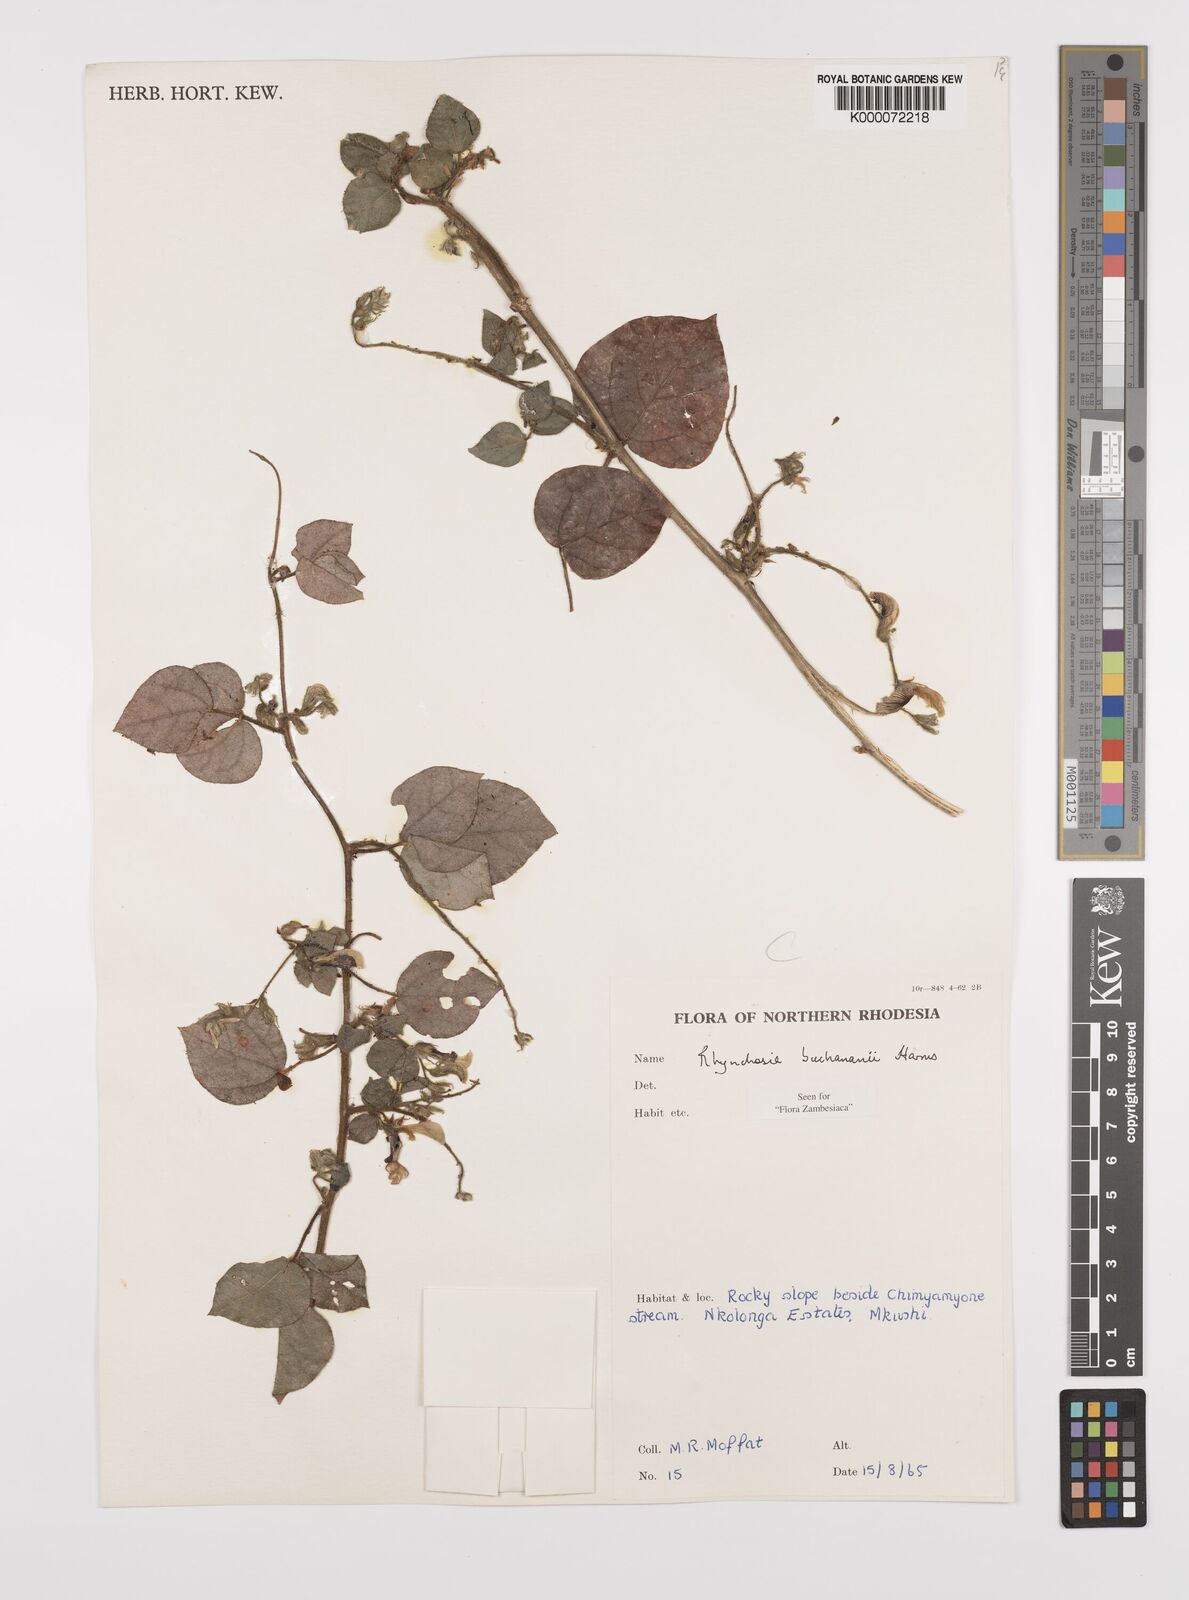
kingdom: Plantae
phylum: Tracheophyta
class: Magnoliopsida
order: Fabales
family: Fabaceae
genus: Rhynchosia
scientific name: Rhynchosia buchananii
